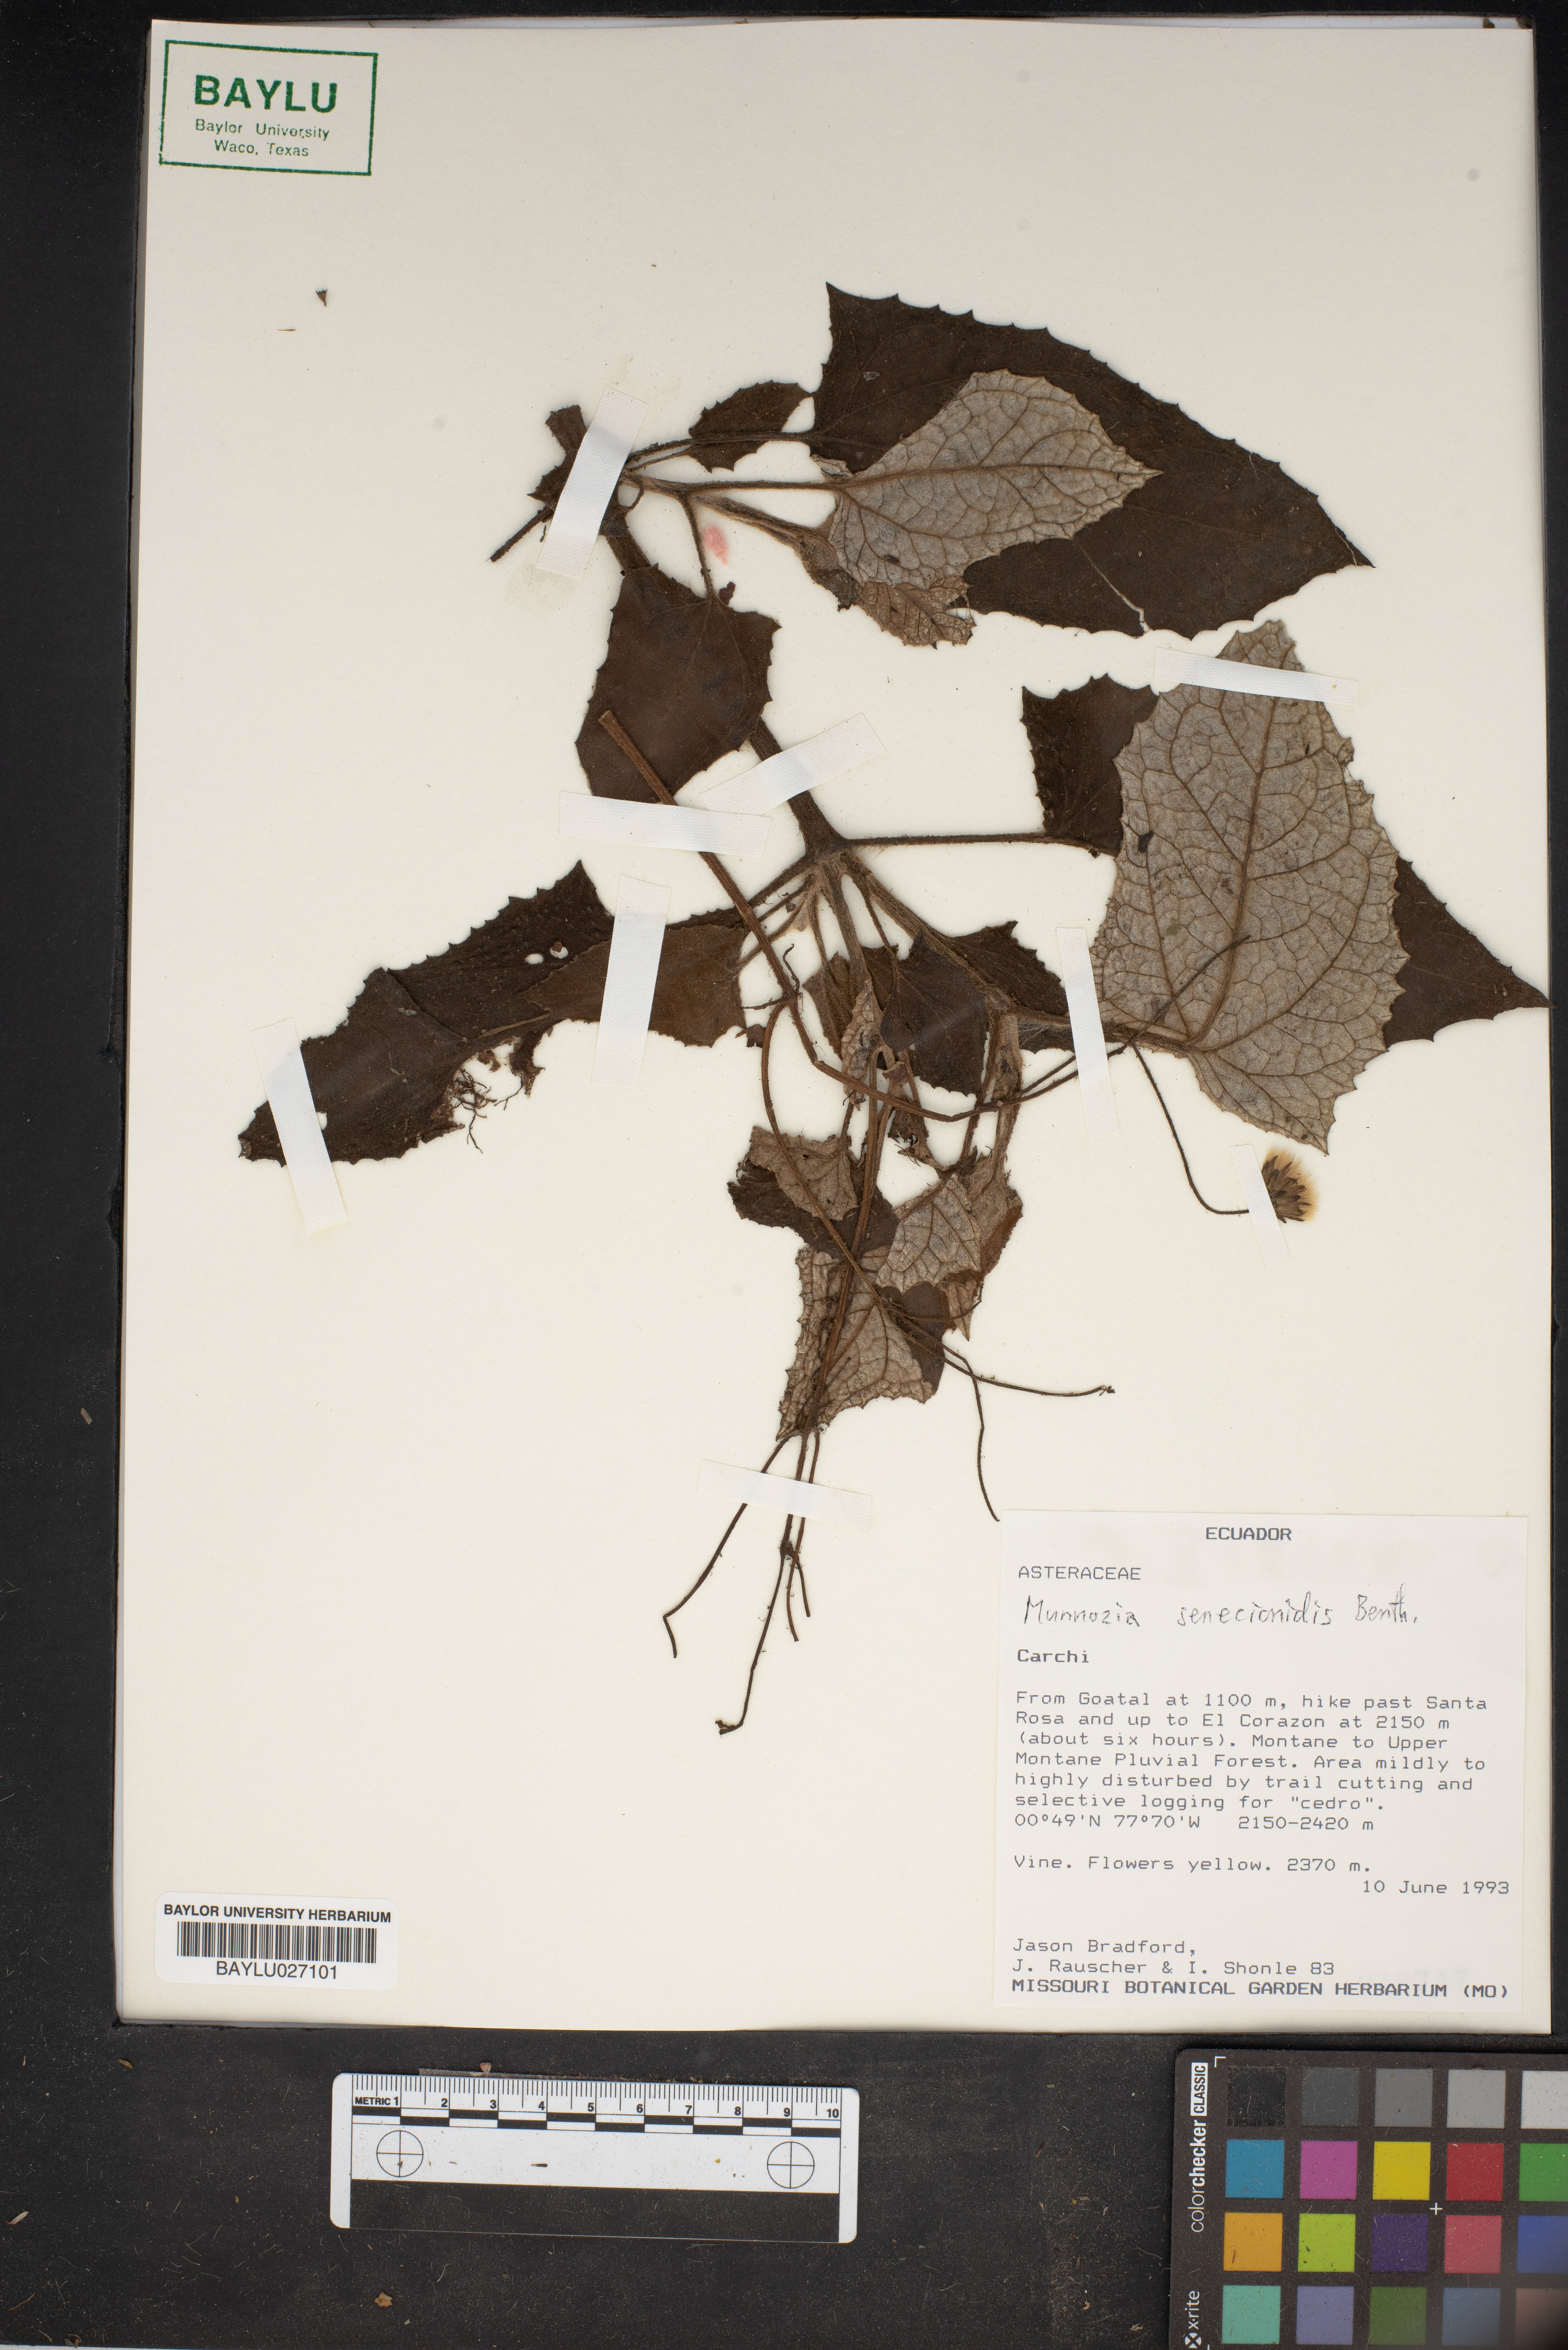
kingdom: Plantae
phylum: Tracheophyta
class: Magnoliopsida
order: Asterales
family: Asteraceae
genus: Munnozia
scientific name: Munnozia senecionidis
